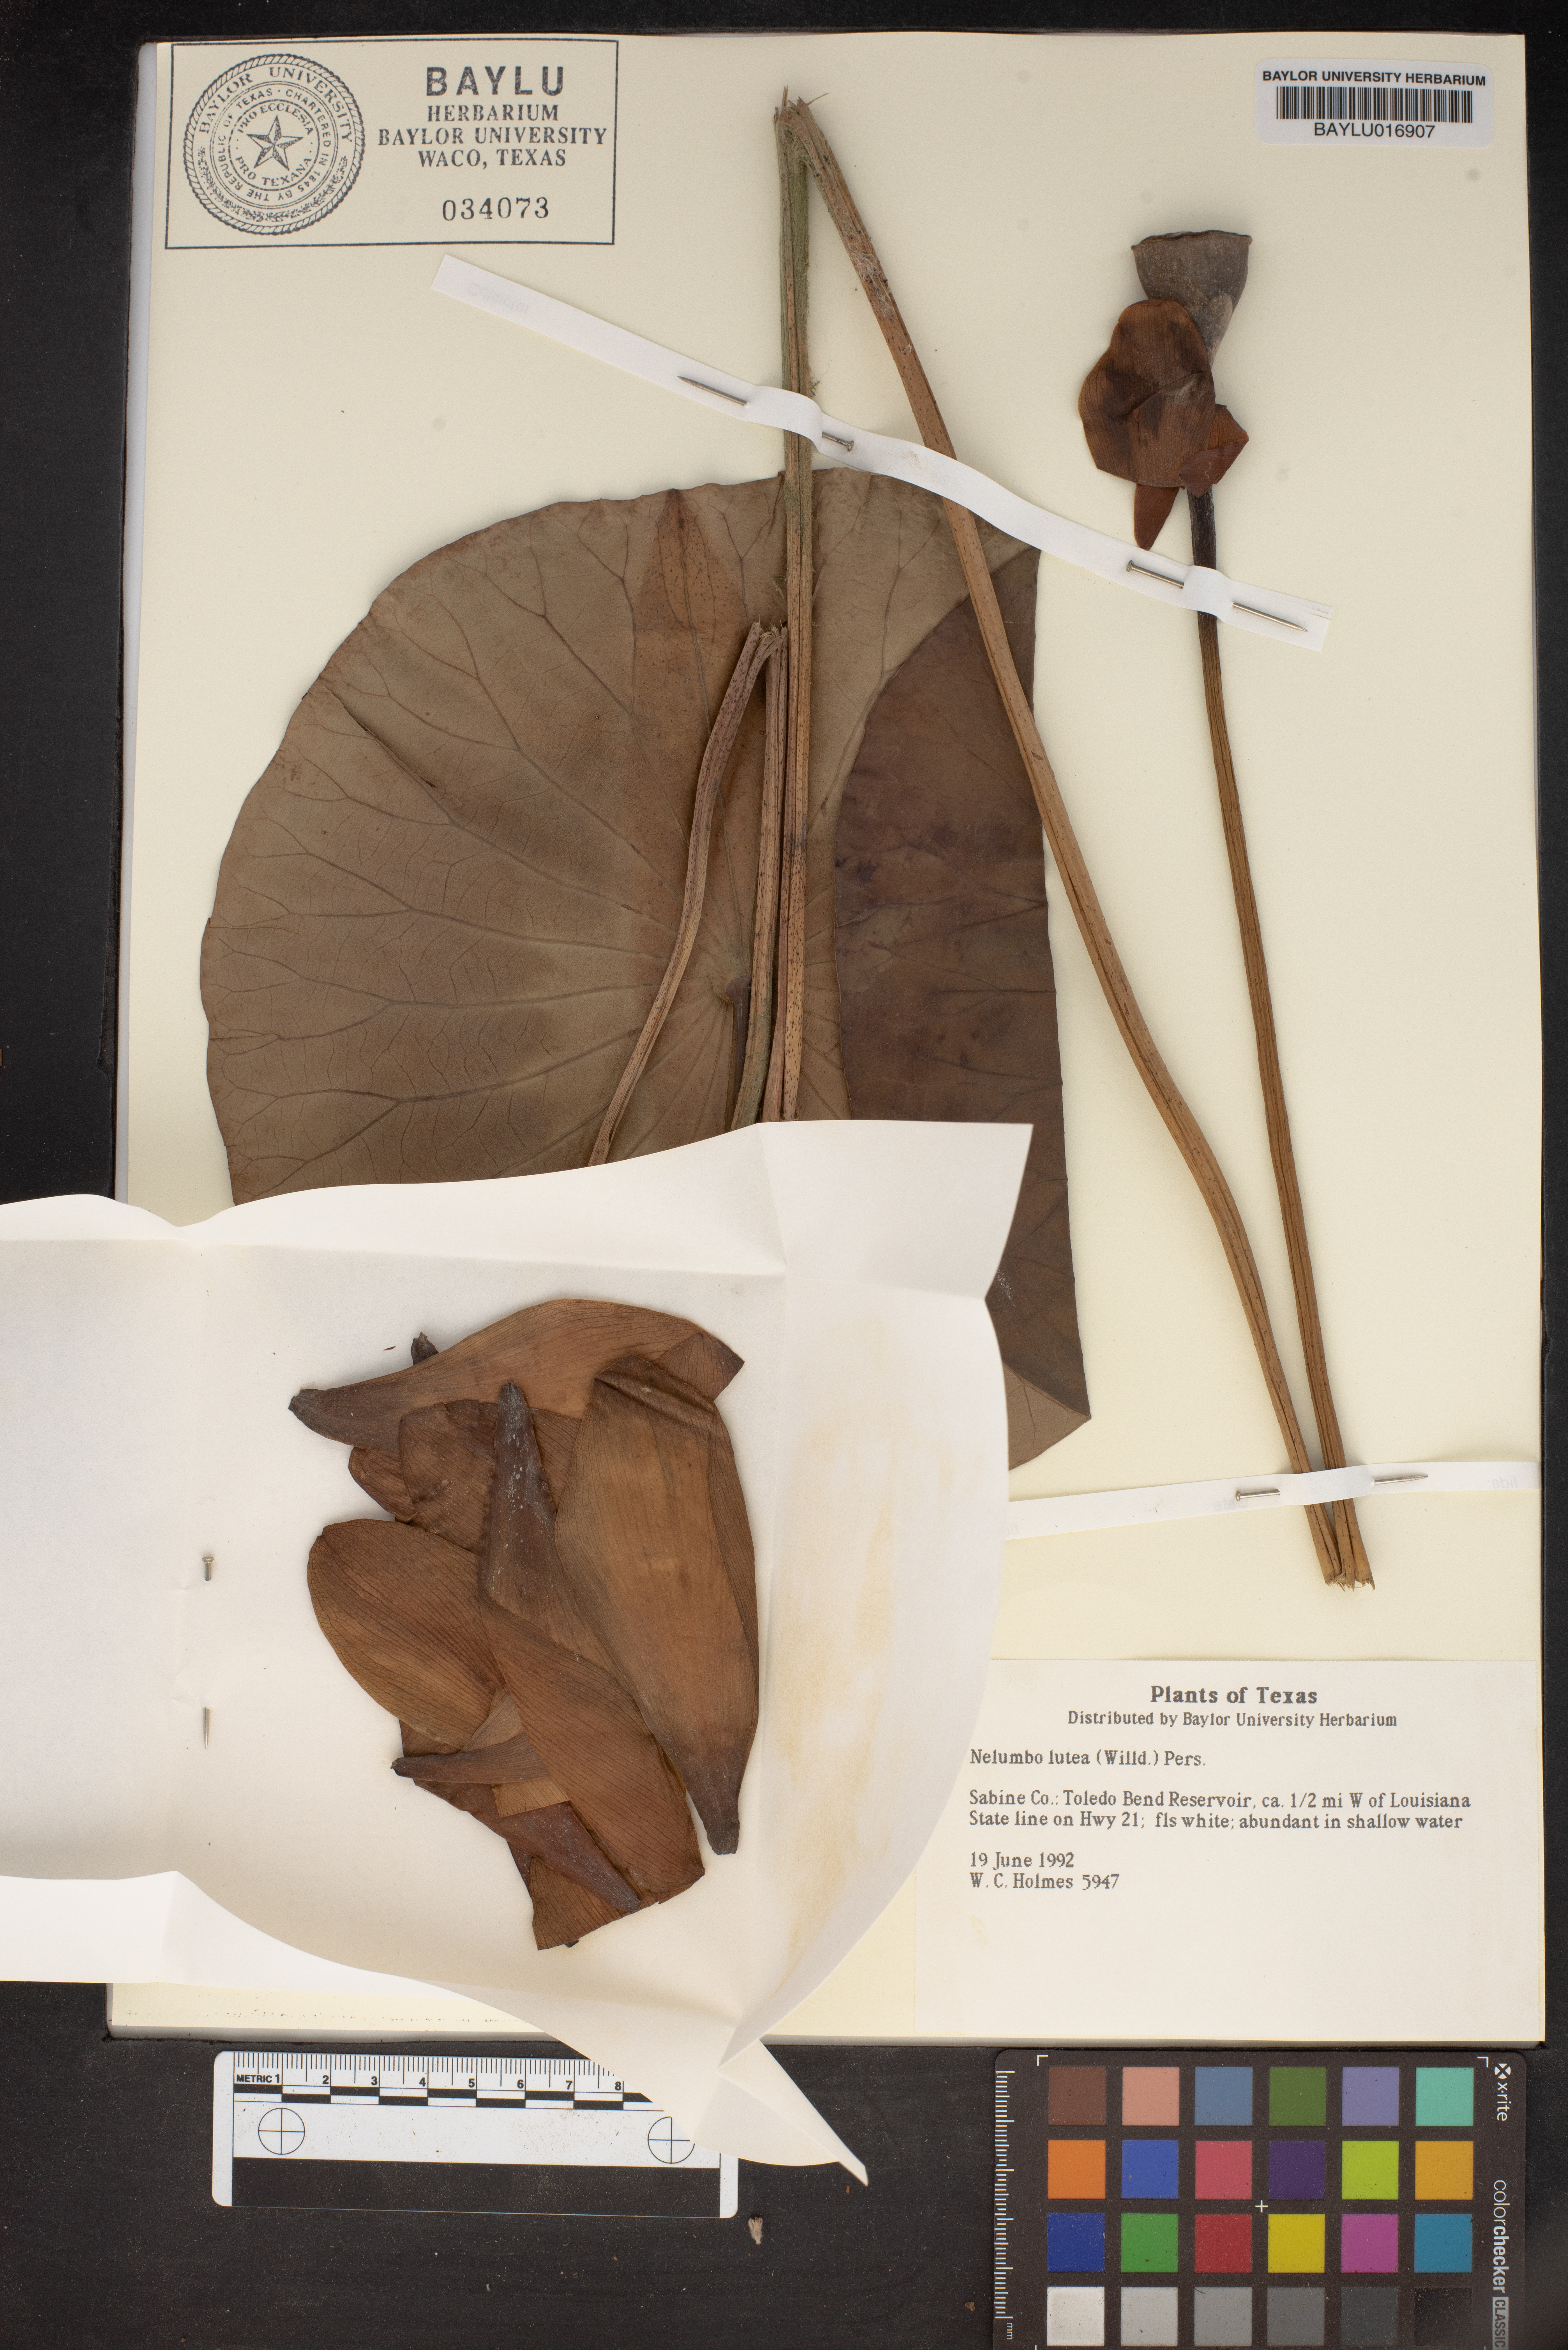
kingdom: Plantae
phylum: Tracheophyta
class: Magnoliopsida
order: Proteales
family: Nelumbonaceae
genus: Nelumbo
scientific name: Nelumbo lutea
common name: American lotus
